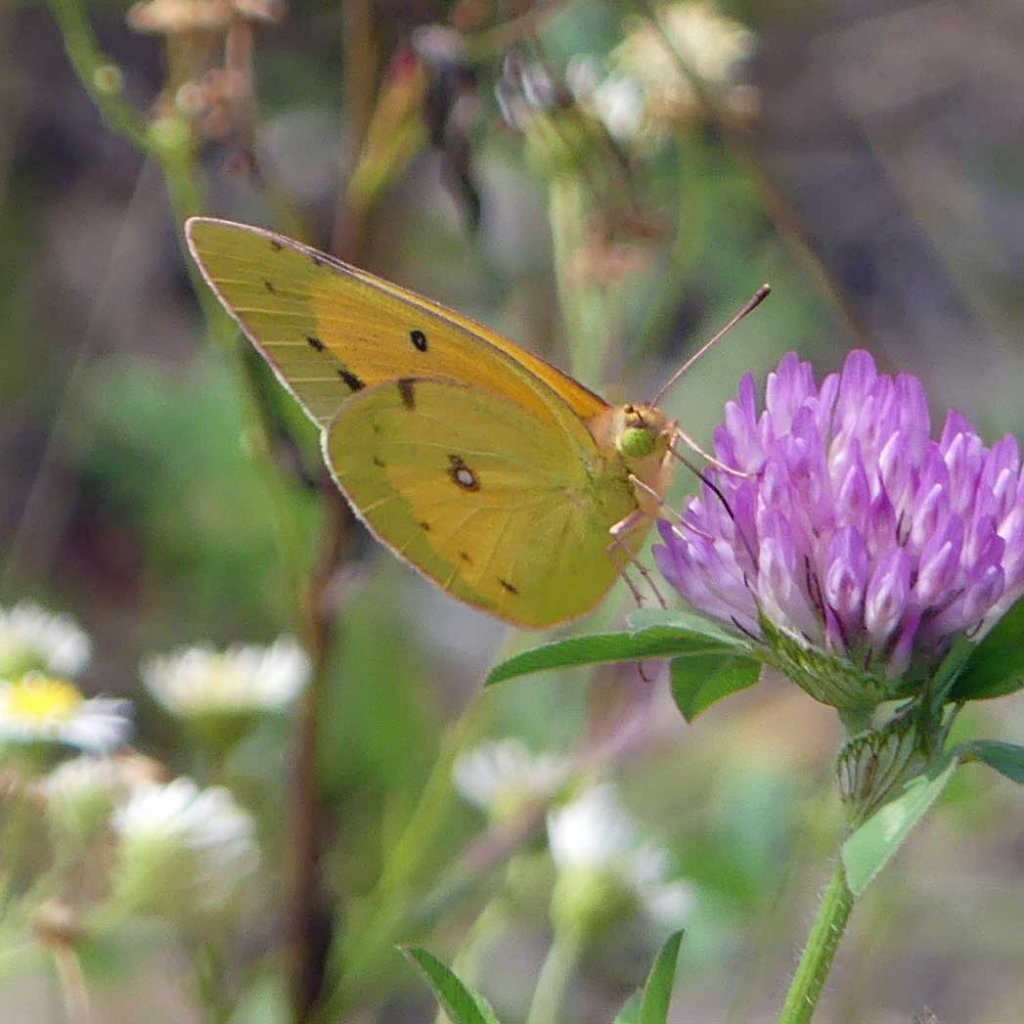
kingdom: Animalia
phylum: Arthropoda
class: Insecta
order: Lepidoptera
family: Pieridae
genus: Colias
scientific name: Colias eurytheme
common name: Orange Sulphur
